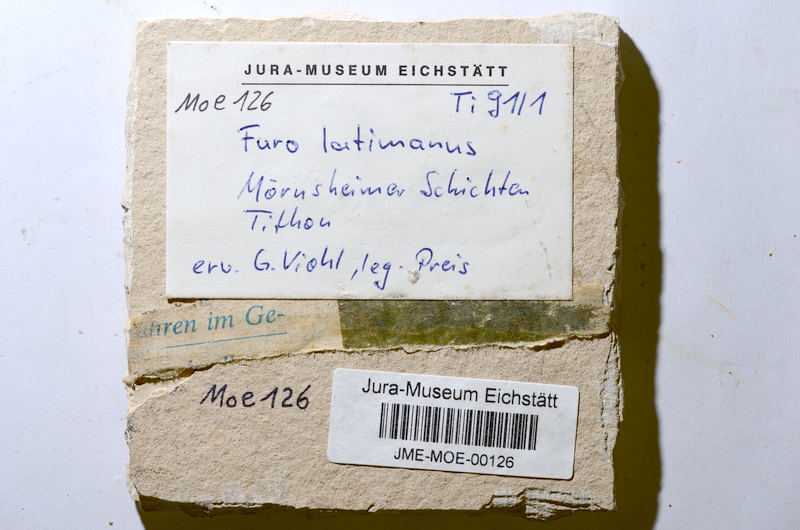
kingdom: Animalia
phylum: Chordata
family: Ophiopsiellidae
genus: Furo
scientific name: Furo latimanus
